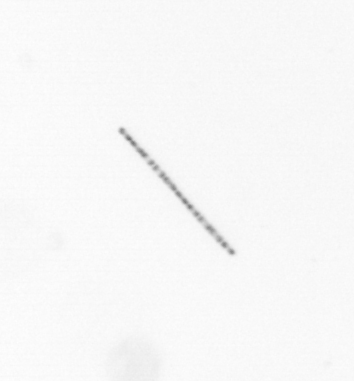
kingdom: Chromista
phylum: Ochrophyta
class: Bacillariophyceae
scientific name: Bacillariophyceae
